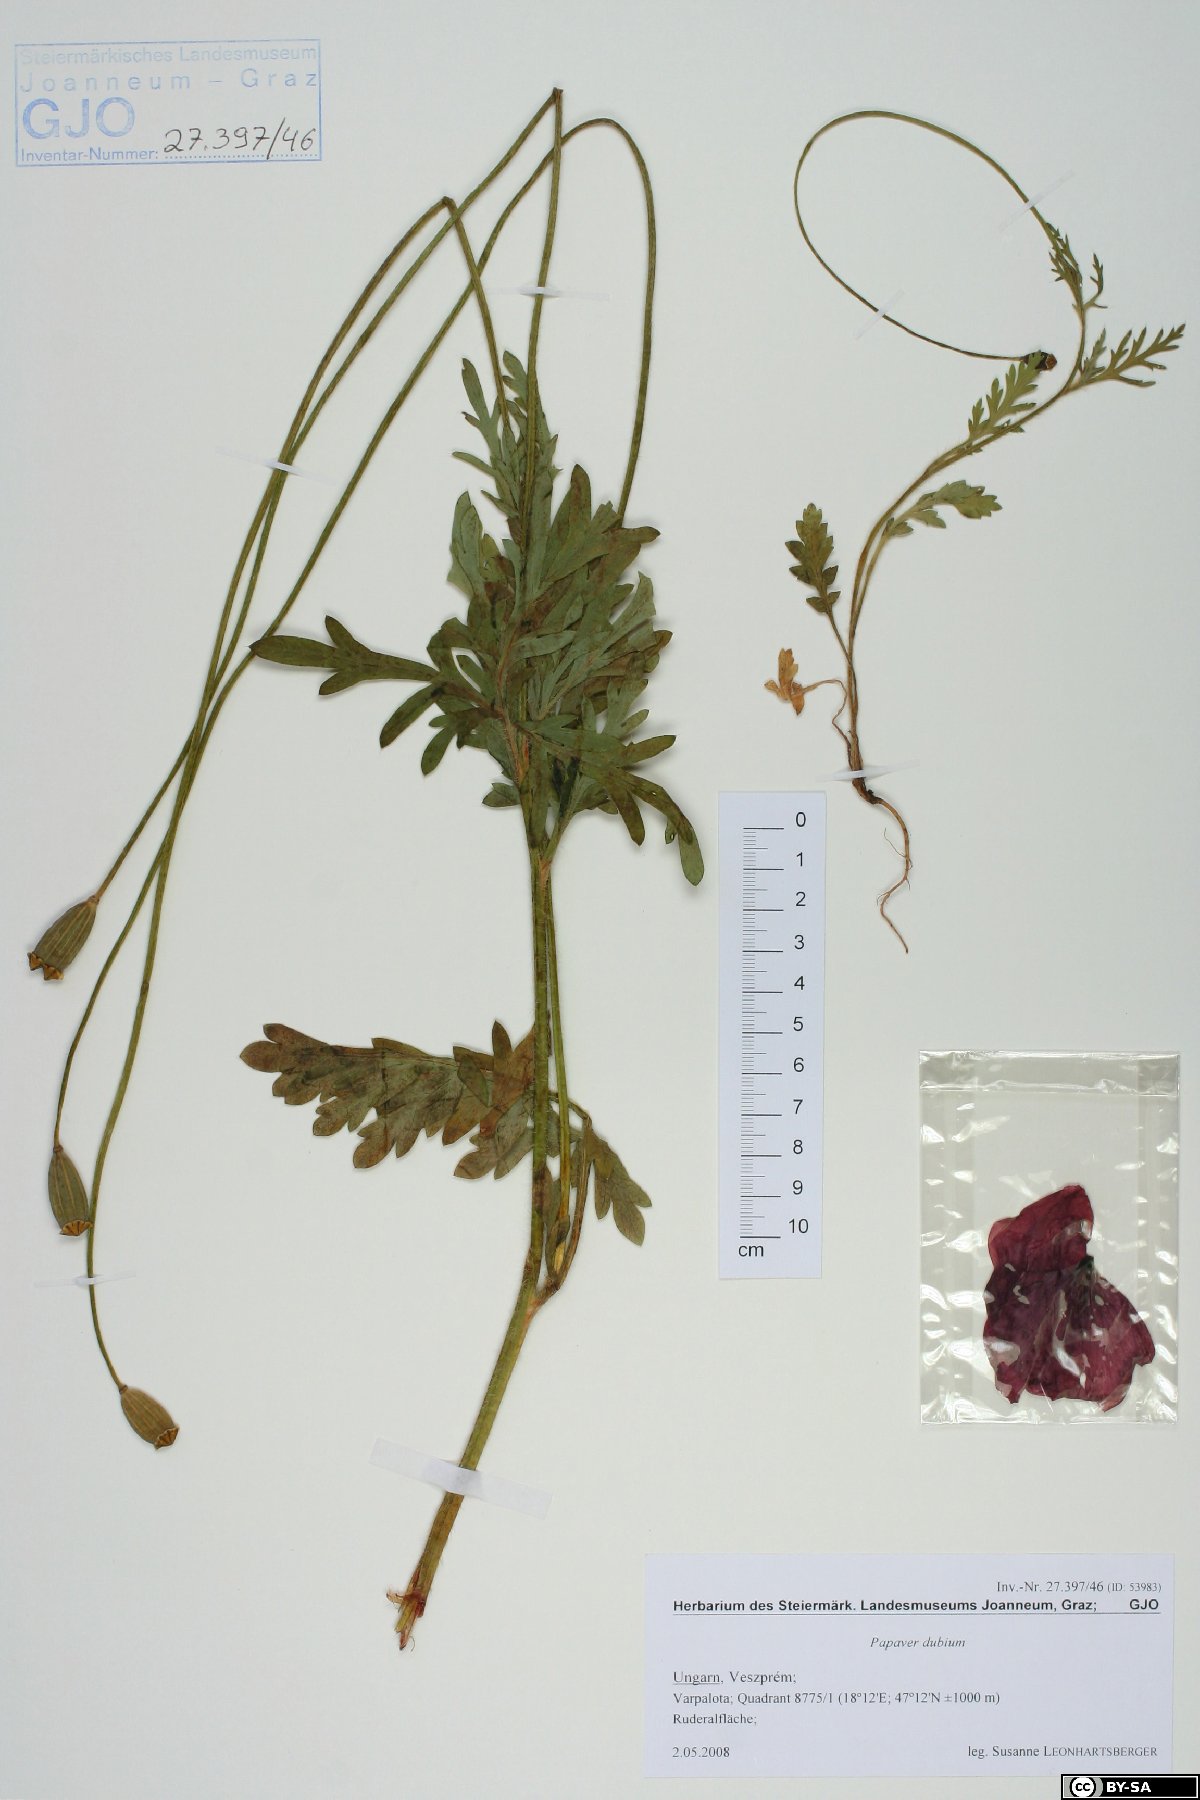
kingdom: Plantae
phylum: Tracheophyta
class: Magnoliopsida
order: Ranunculales
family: Papaveraceae
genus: Papaver
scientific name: Papaver dubium
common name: Long-headed poppy
